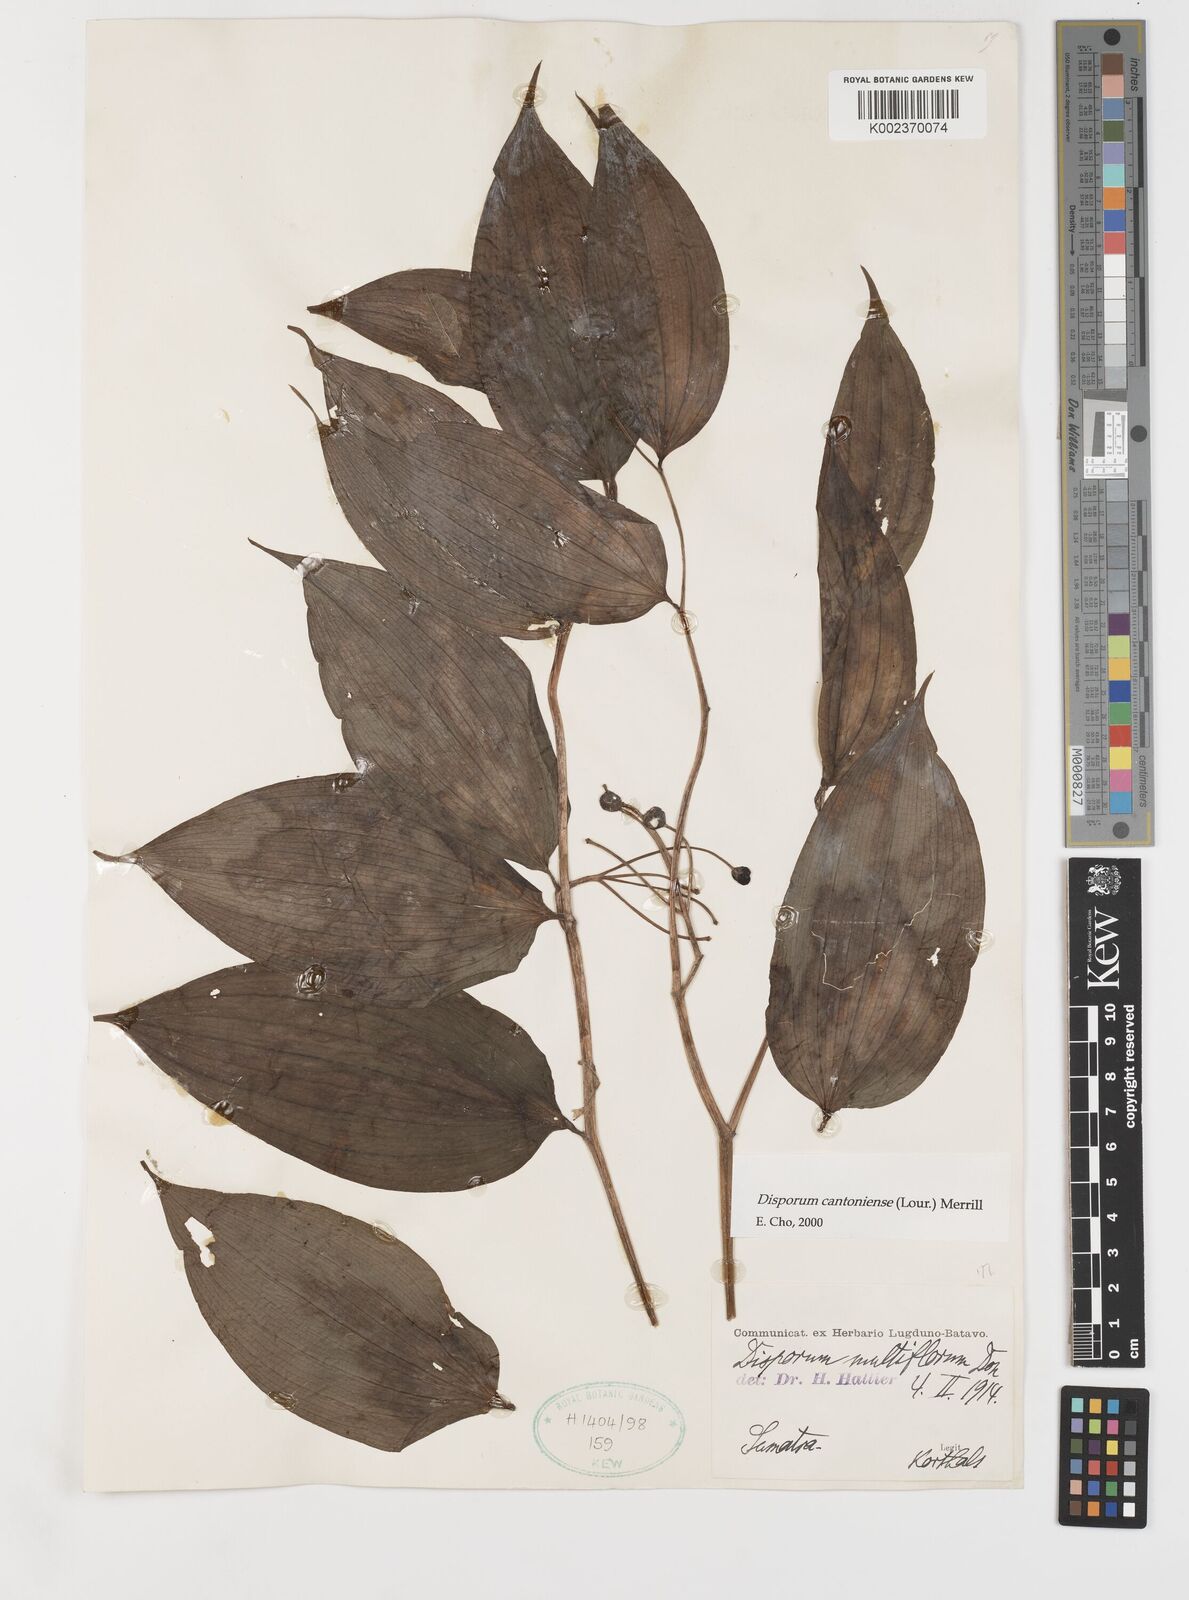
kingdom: Plantae
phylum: Tracheophyta
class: Liliopsida
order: Liliales
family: Colchicaceae
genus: Disporum
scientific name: Disporum cantoniense
